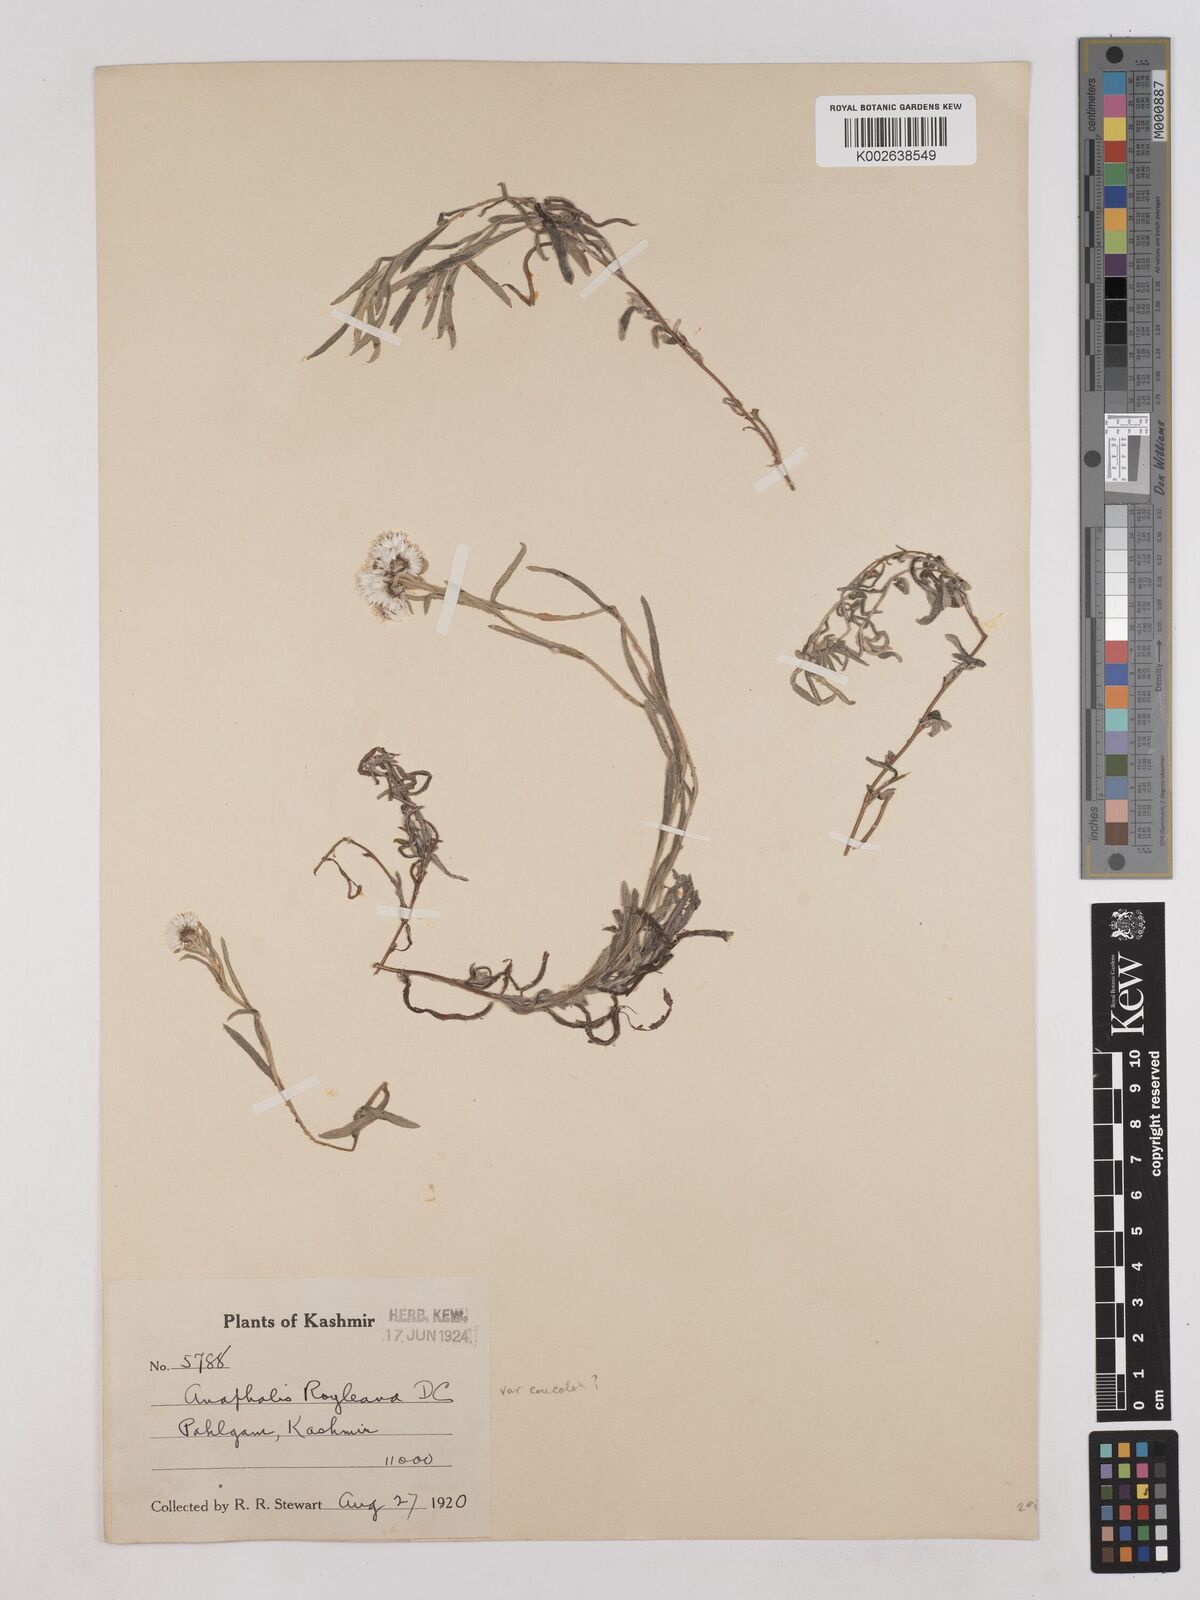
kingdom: Plantae
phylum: Tracheophyta
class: Magnoliopsida
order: Asterales
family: Asteraceae
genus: Anaphalis
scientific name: Anaphalis royleana
